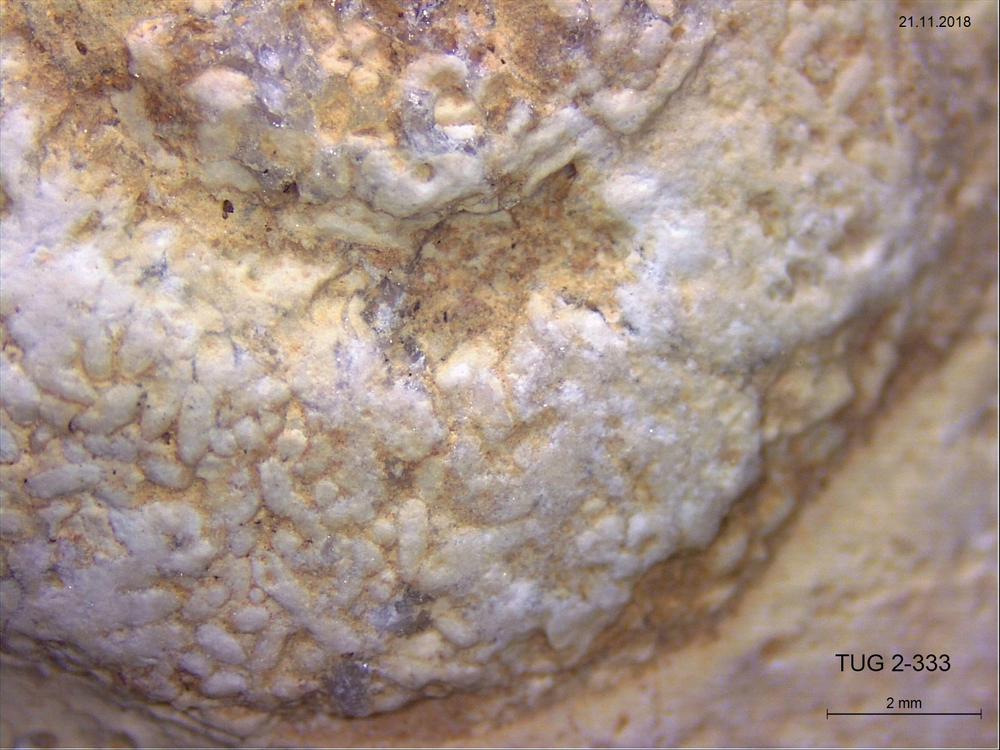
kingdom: Animalia
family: Coprulidae
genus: Coprulus
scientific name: Coprulus
